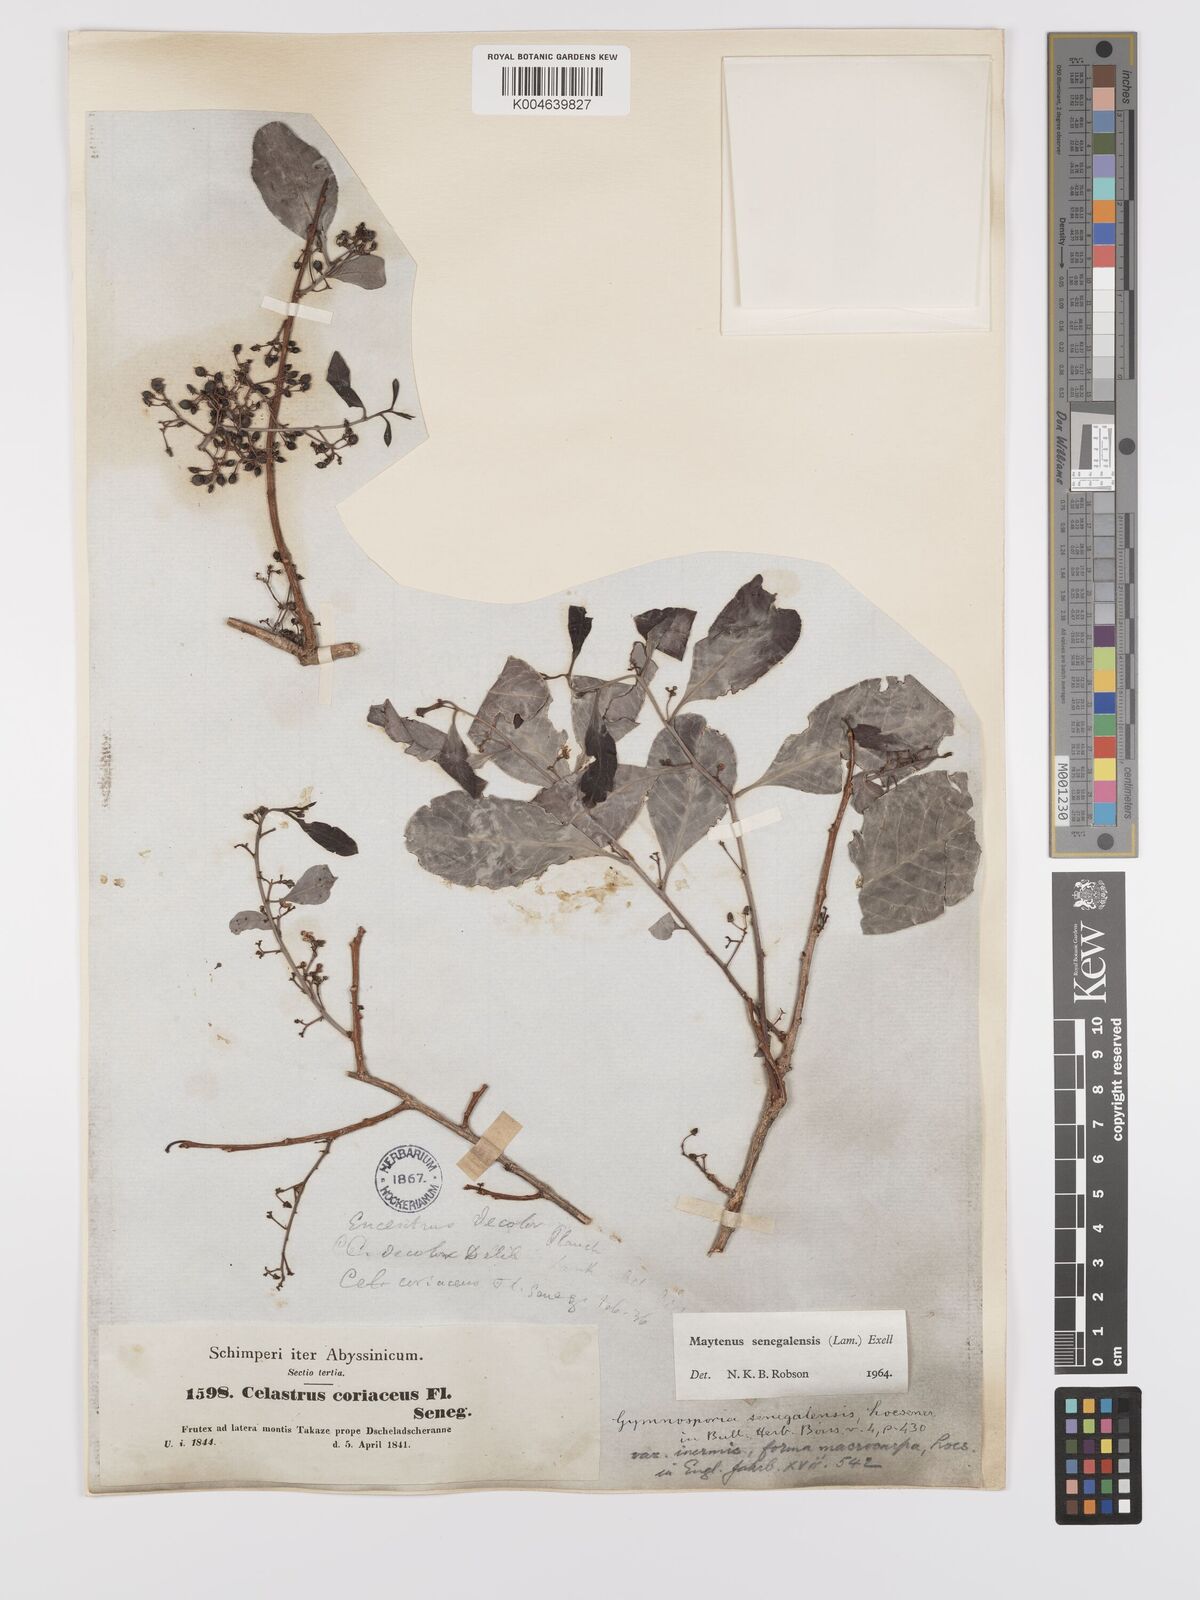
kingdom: Plantae
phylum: Tracheophyta
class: Magnoliopsida
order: Celastrales
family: Celastraceae
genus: Gymnosporia
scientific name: Gymnosporia senegalensis
